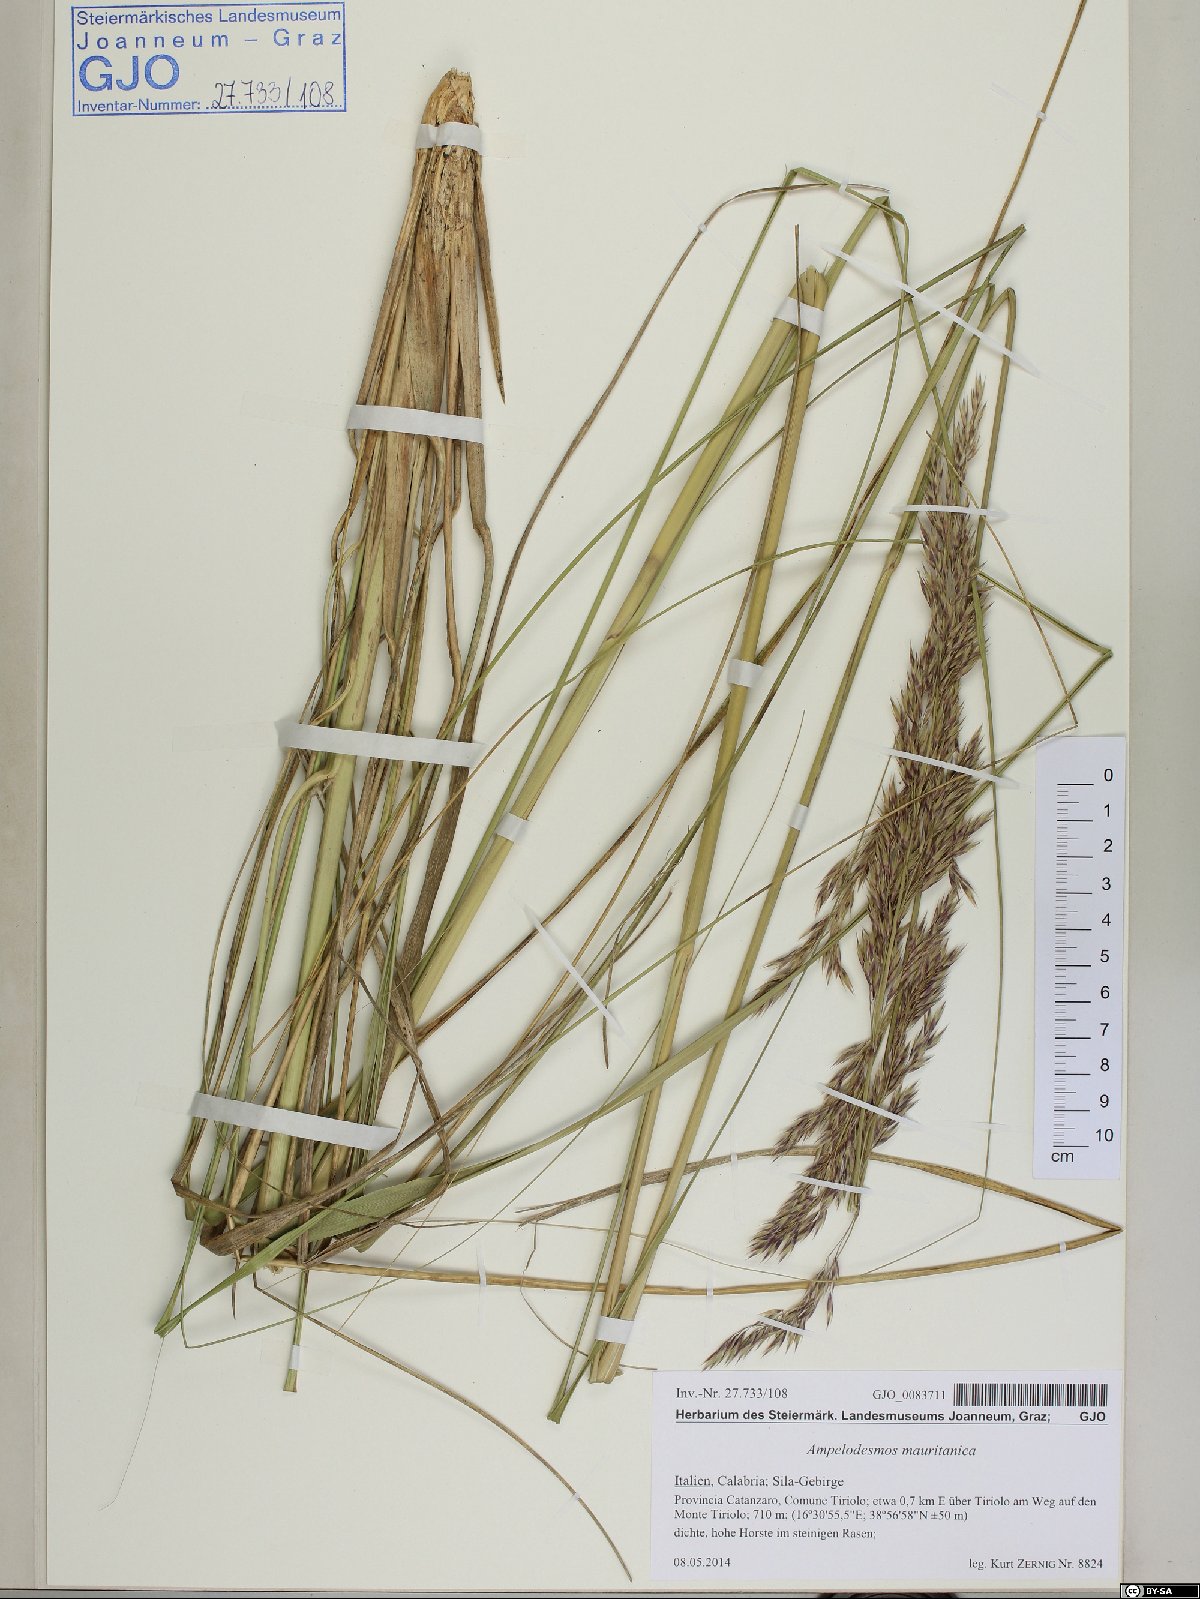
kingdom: Plantae
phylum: Tracheophyta
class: Liliopsida
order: Poales
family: Poaceae
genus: Ampelodesmos
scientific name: Ampelodesmos mauritanicus
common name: Mauritanian grass
